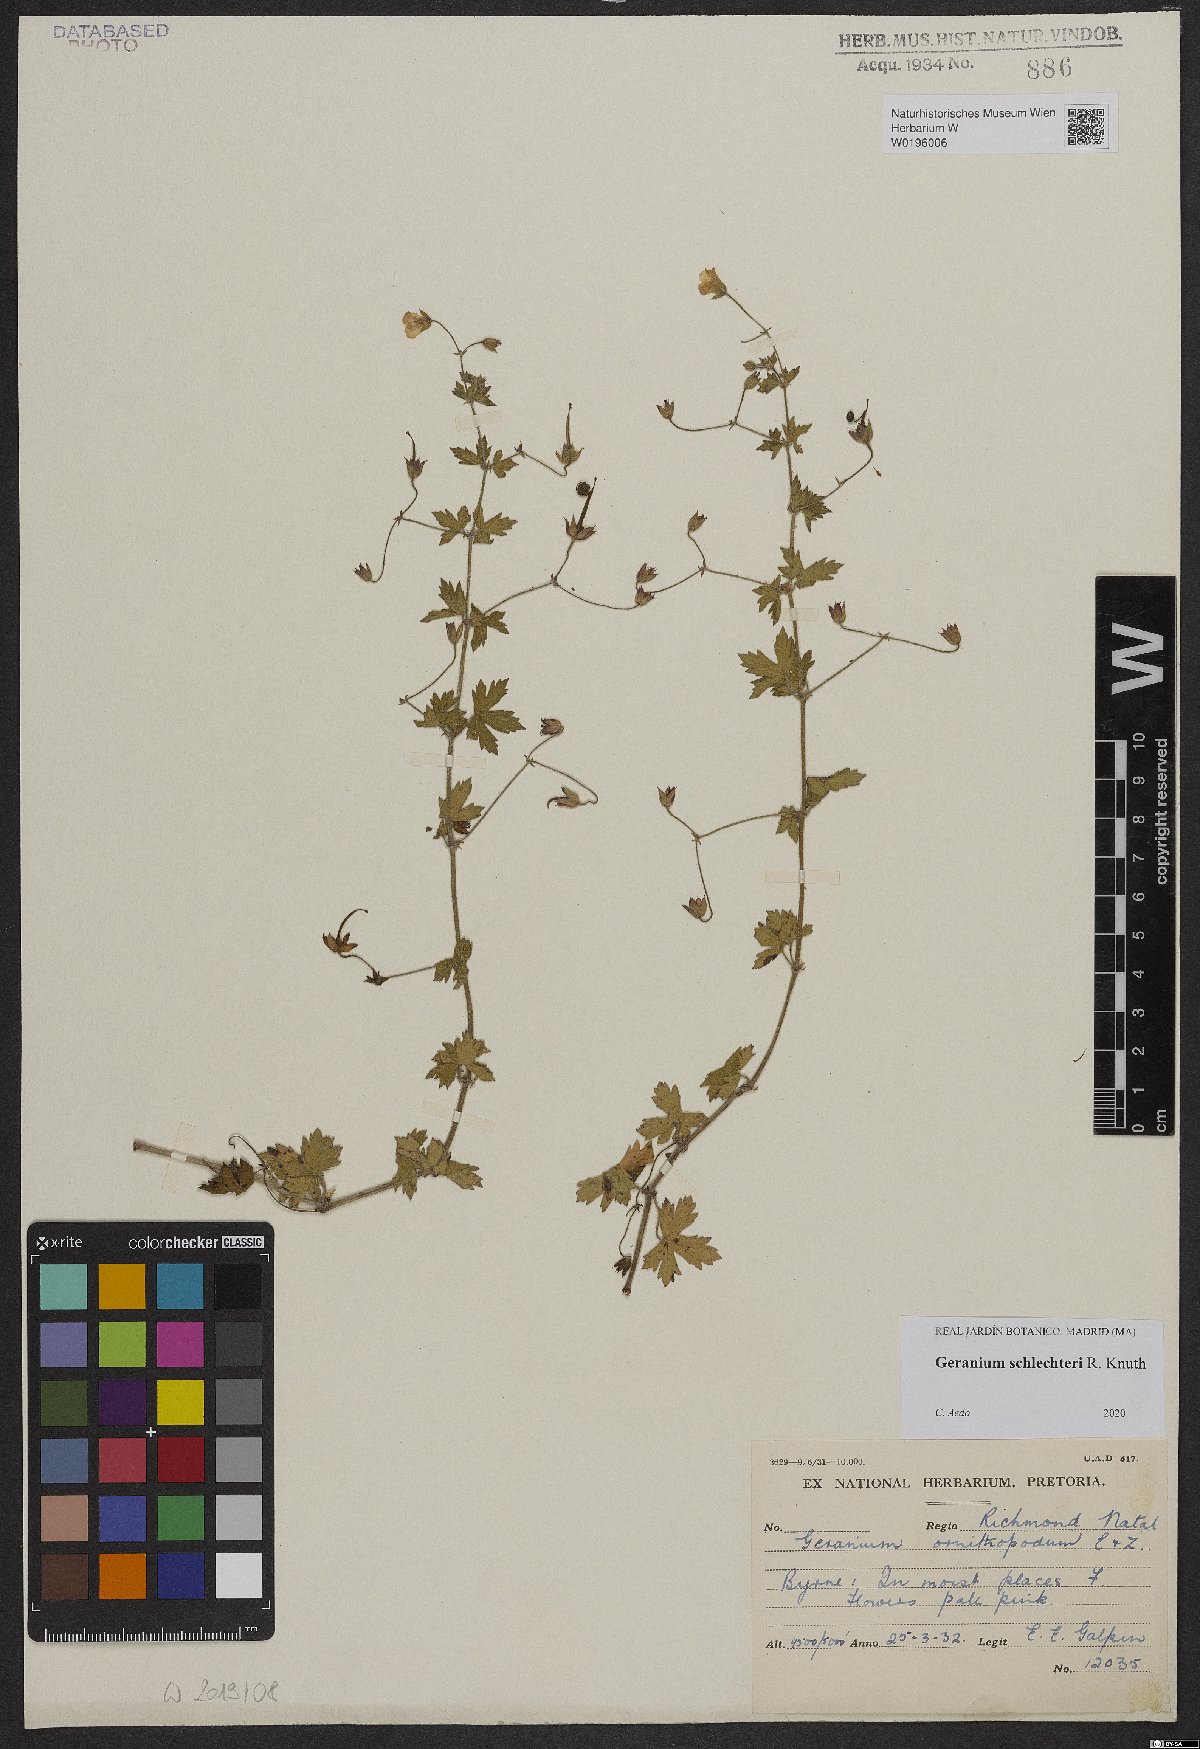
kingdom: Plantae
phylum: Tracheophyta
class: Magnoliopsida
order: Geraniales
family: Geraniaceae
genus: Geranium
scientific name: Geranium schlechteri
